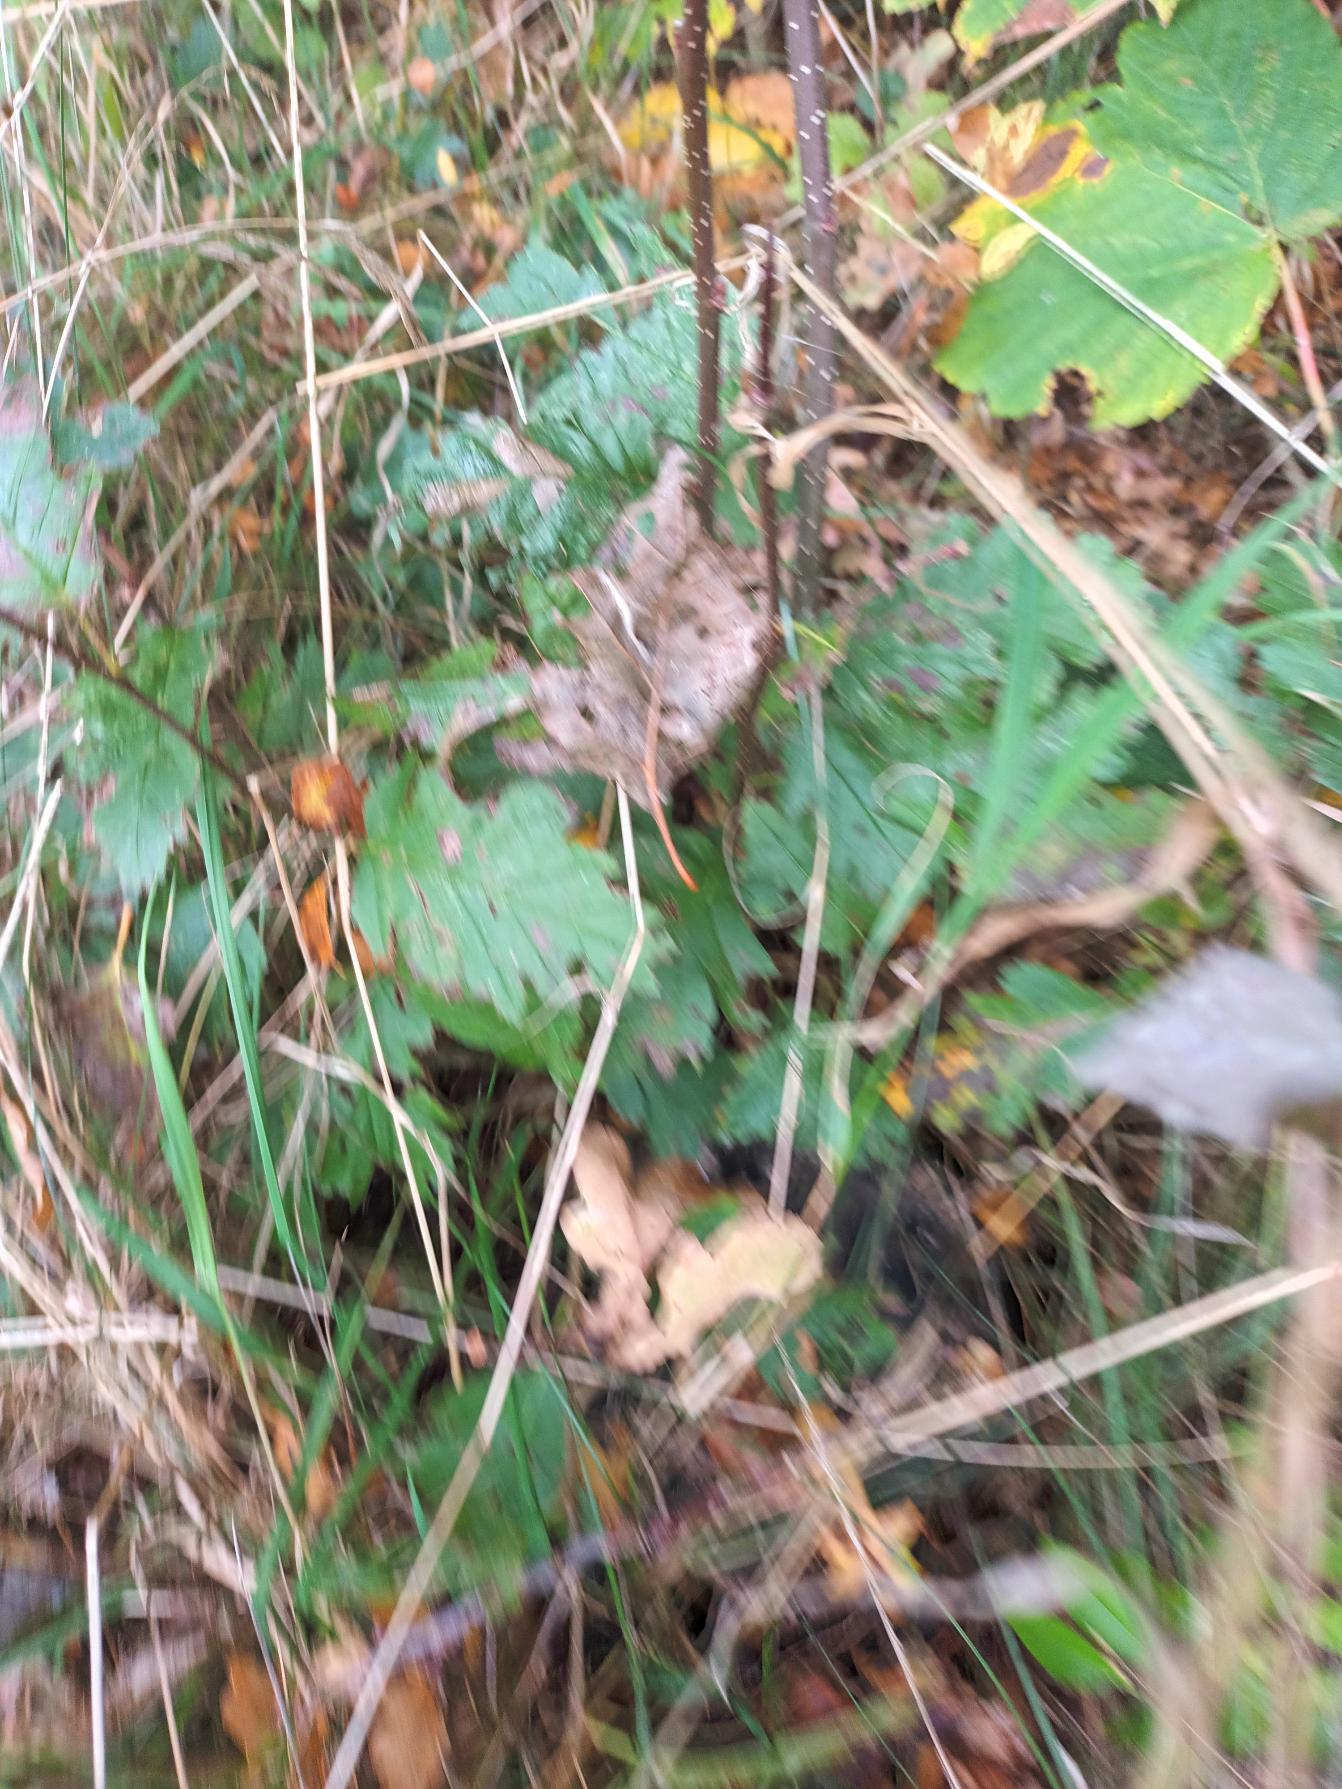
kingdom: Plantae
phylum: Tracheophyta
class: Magnoliopsida
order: Rosales
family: Rosaceae
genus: Scandosorbus
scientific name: Scandosorbus intermedia
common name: Selje-røn
